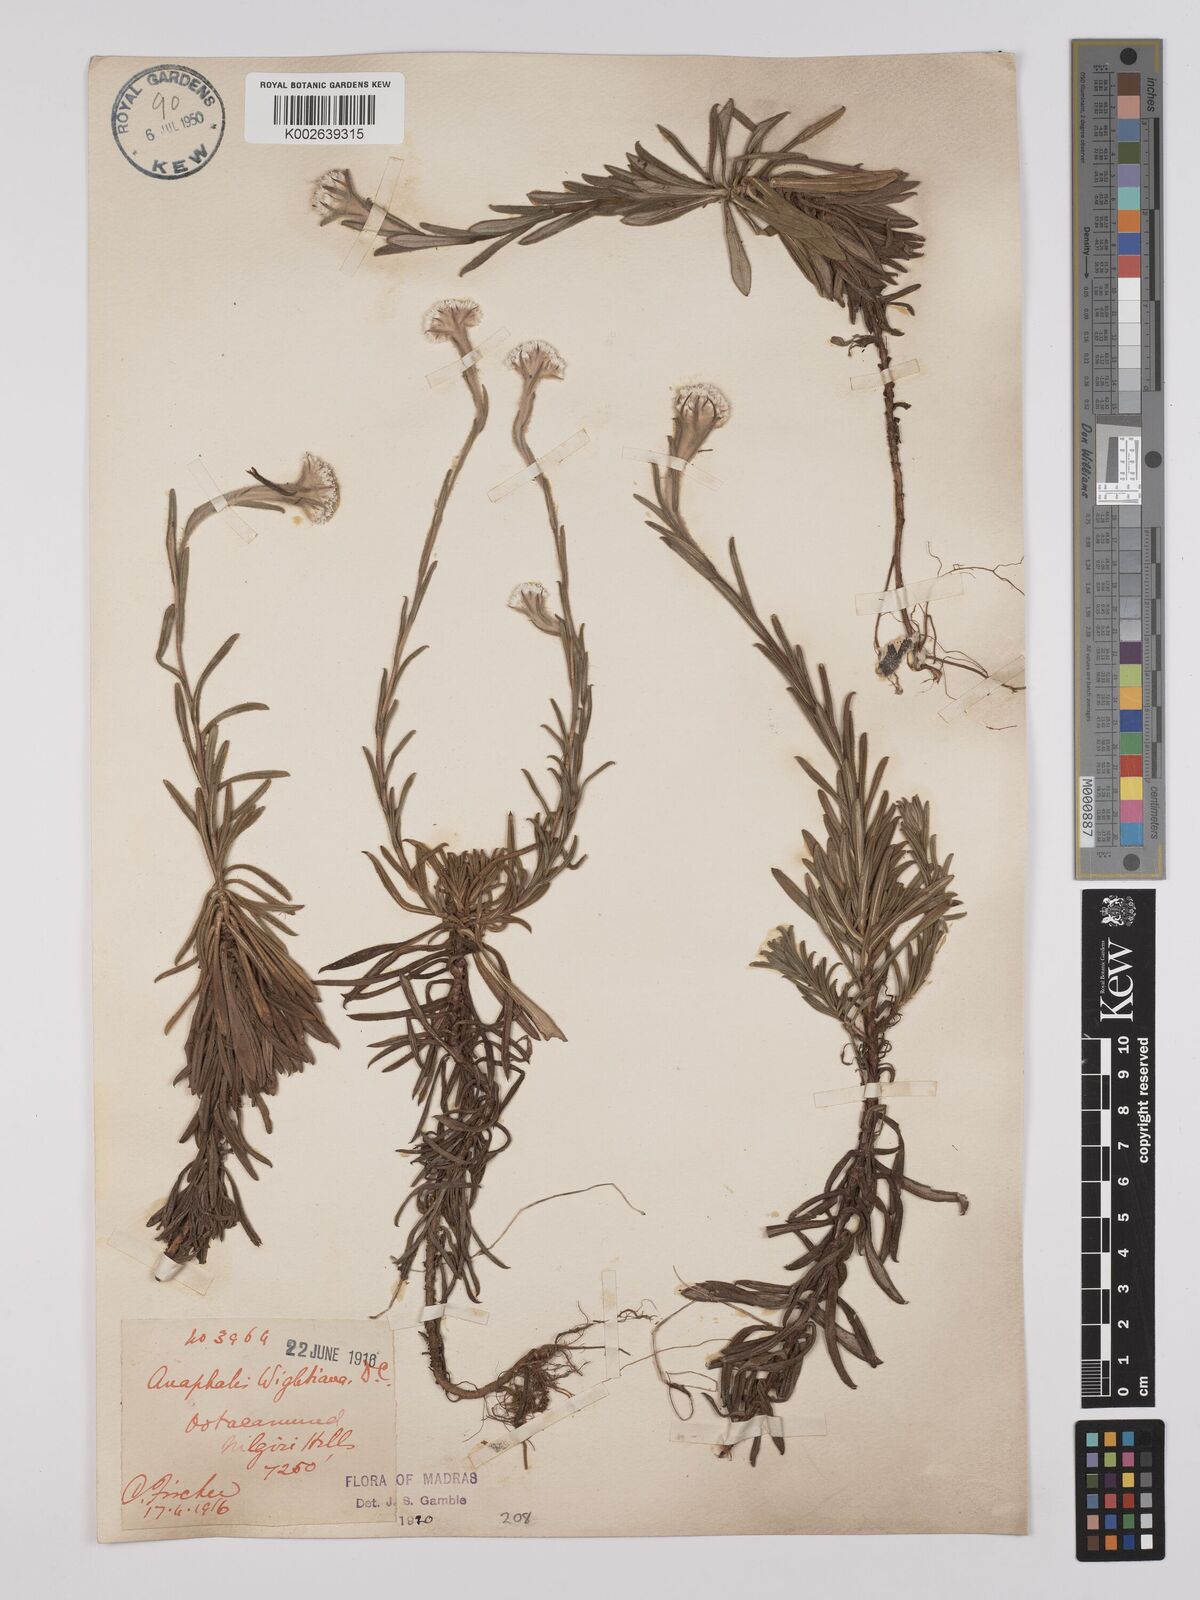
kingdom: Plantae
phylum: Tracheophyta
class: Magnoliopsida
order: Asterales
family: Asteraceae
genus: Anaphalis
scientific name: Anaphalis wightiana
